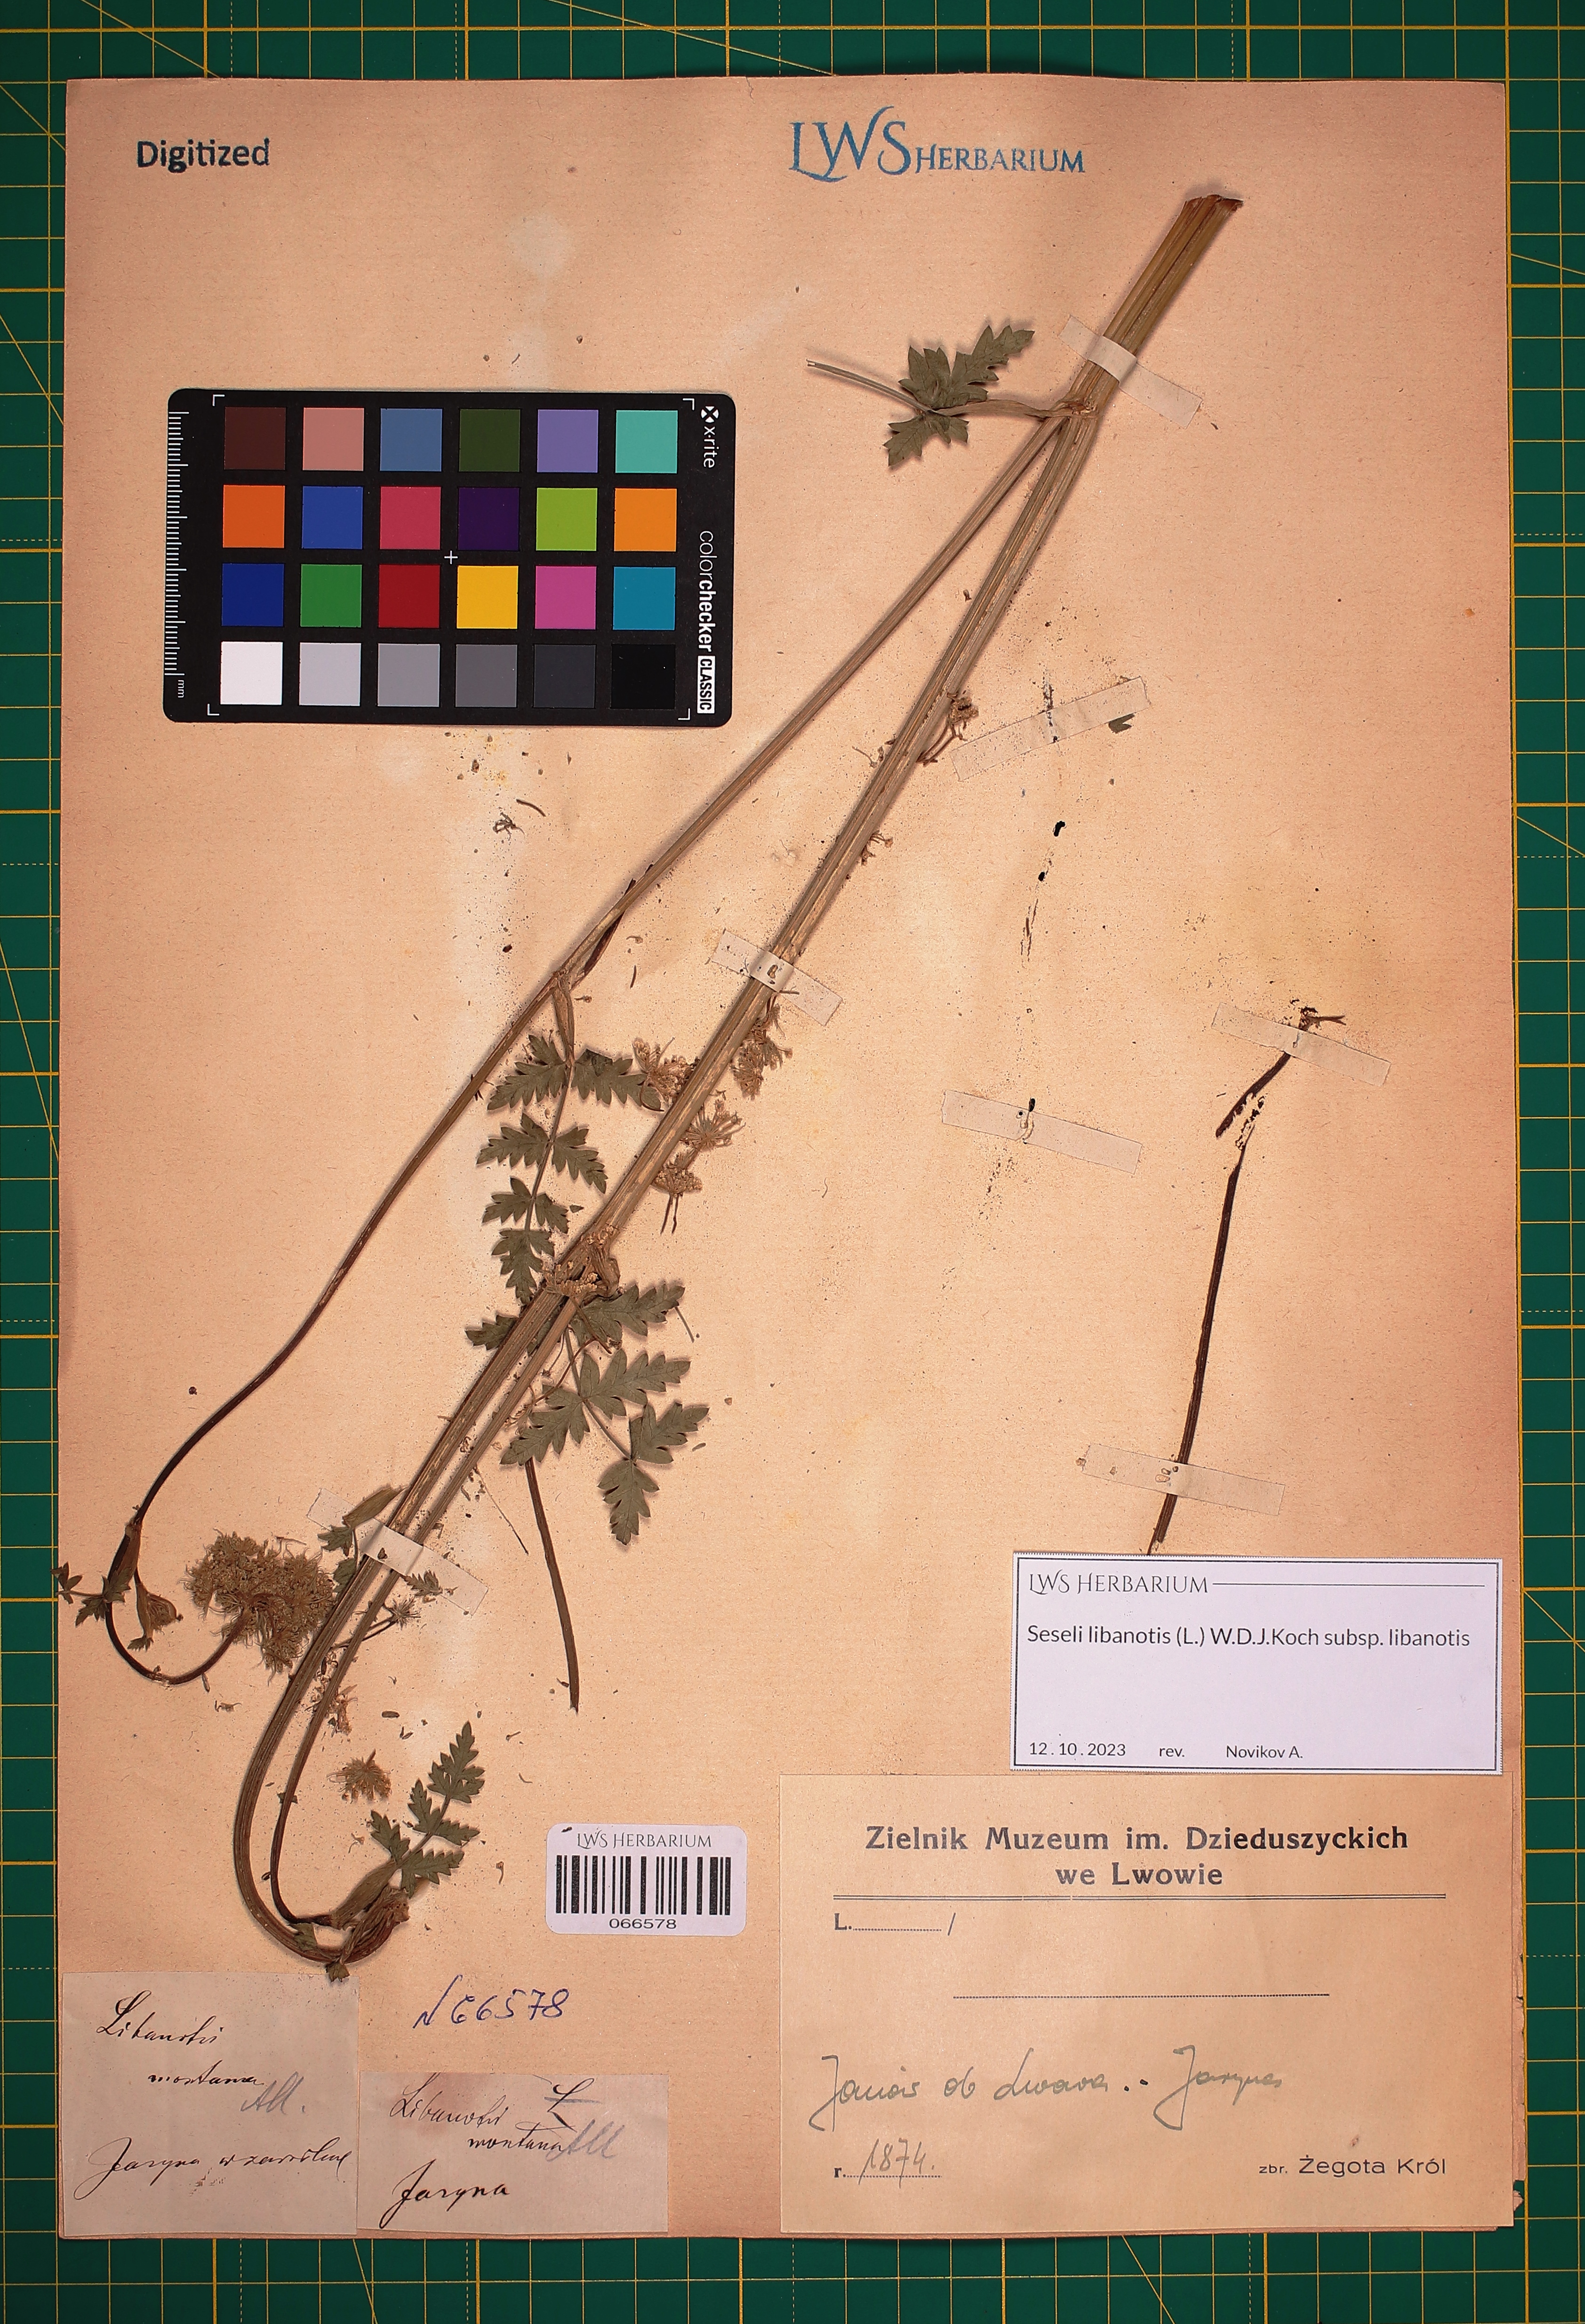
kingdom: Plantae
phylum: Tracheophyta
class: Magnoliopsida
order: Apiales
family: Apiaceae
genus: Seseli
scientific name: Seseli libanotis
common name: Mooncarrot
